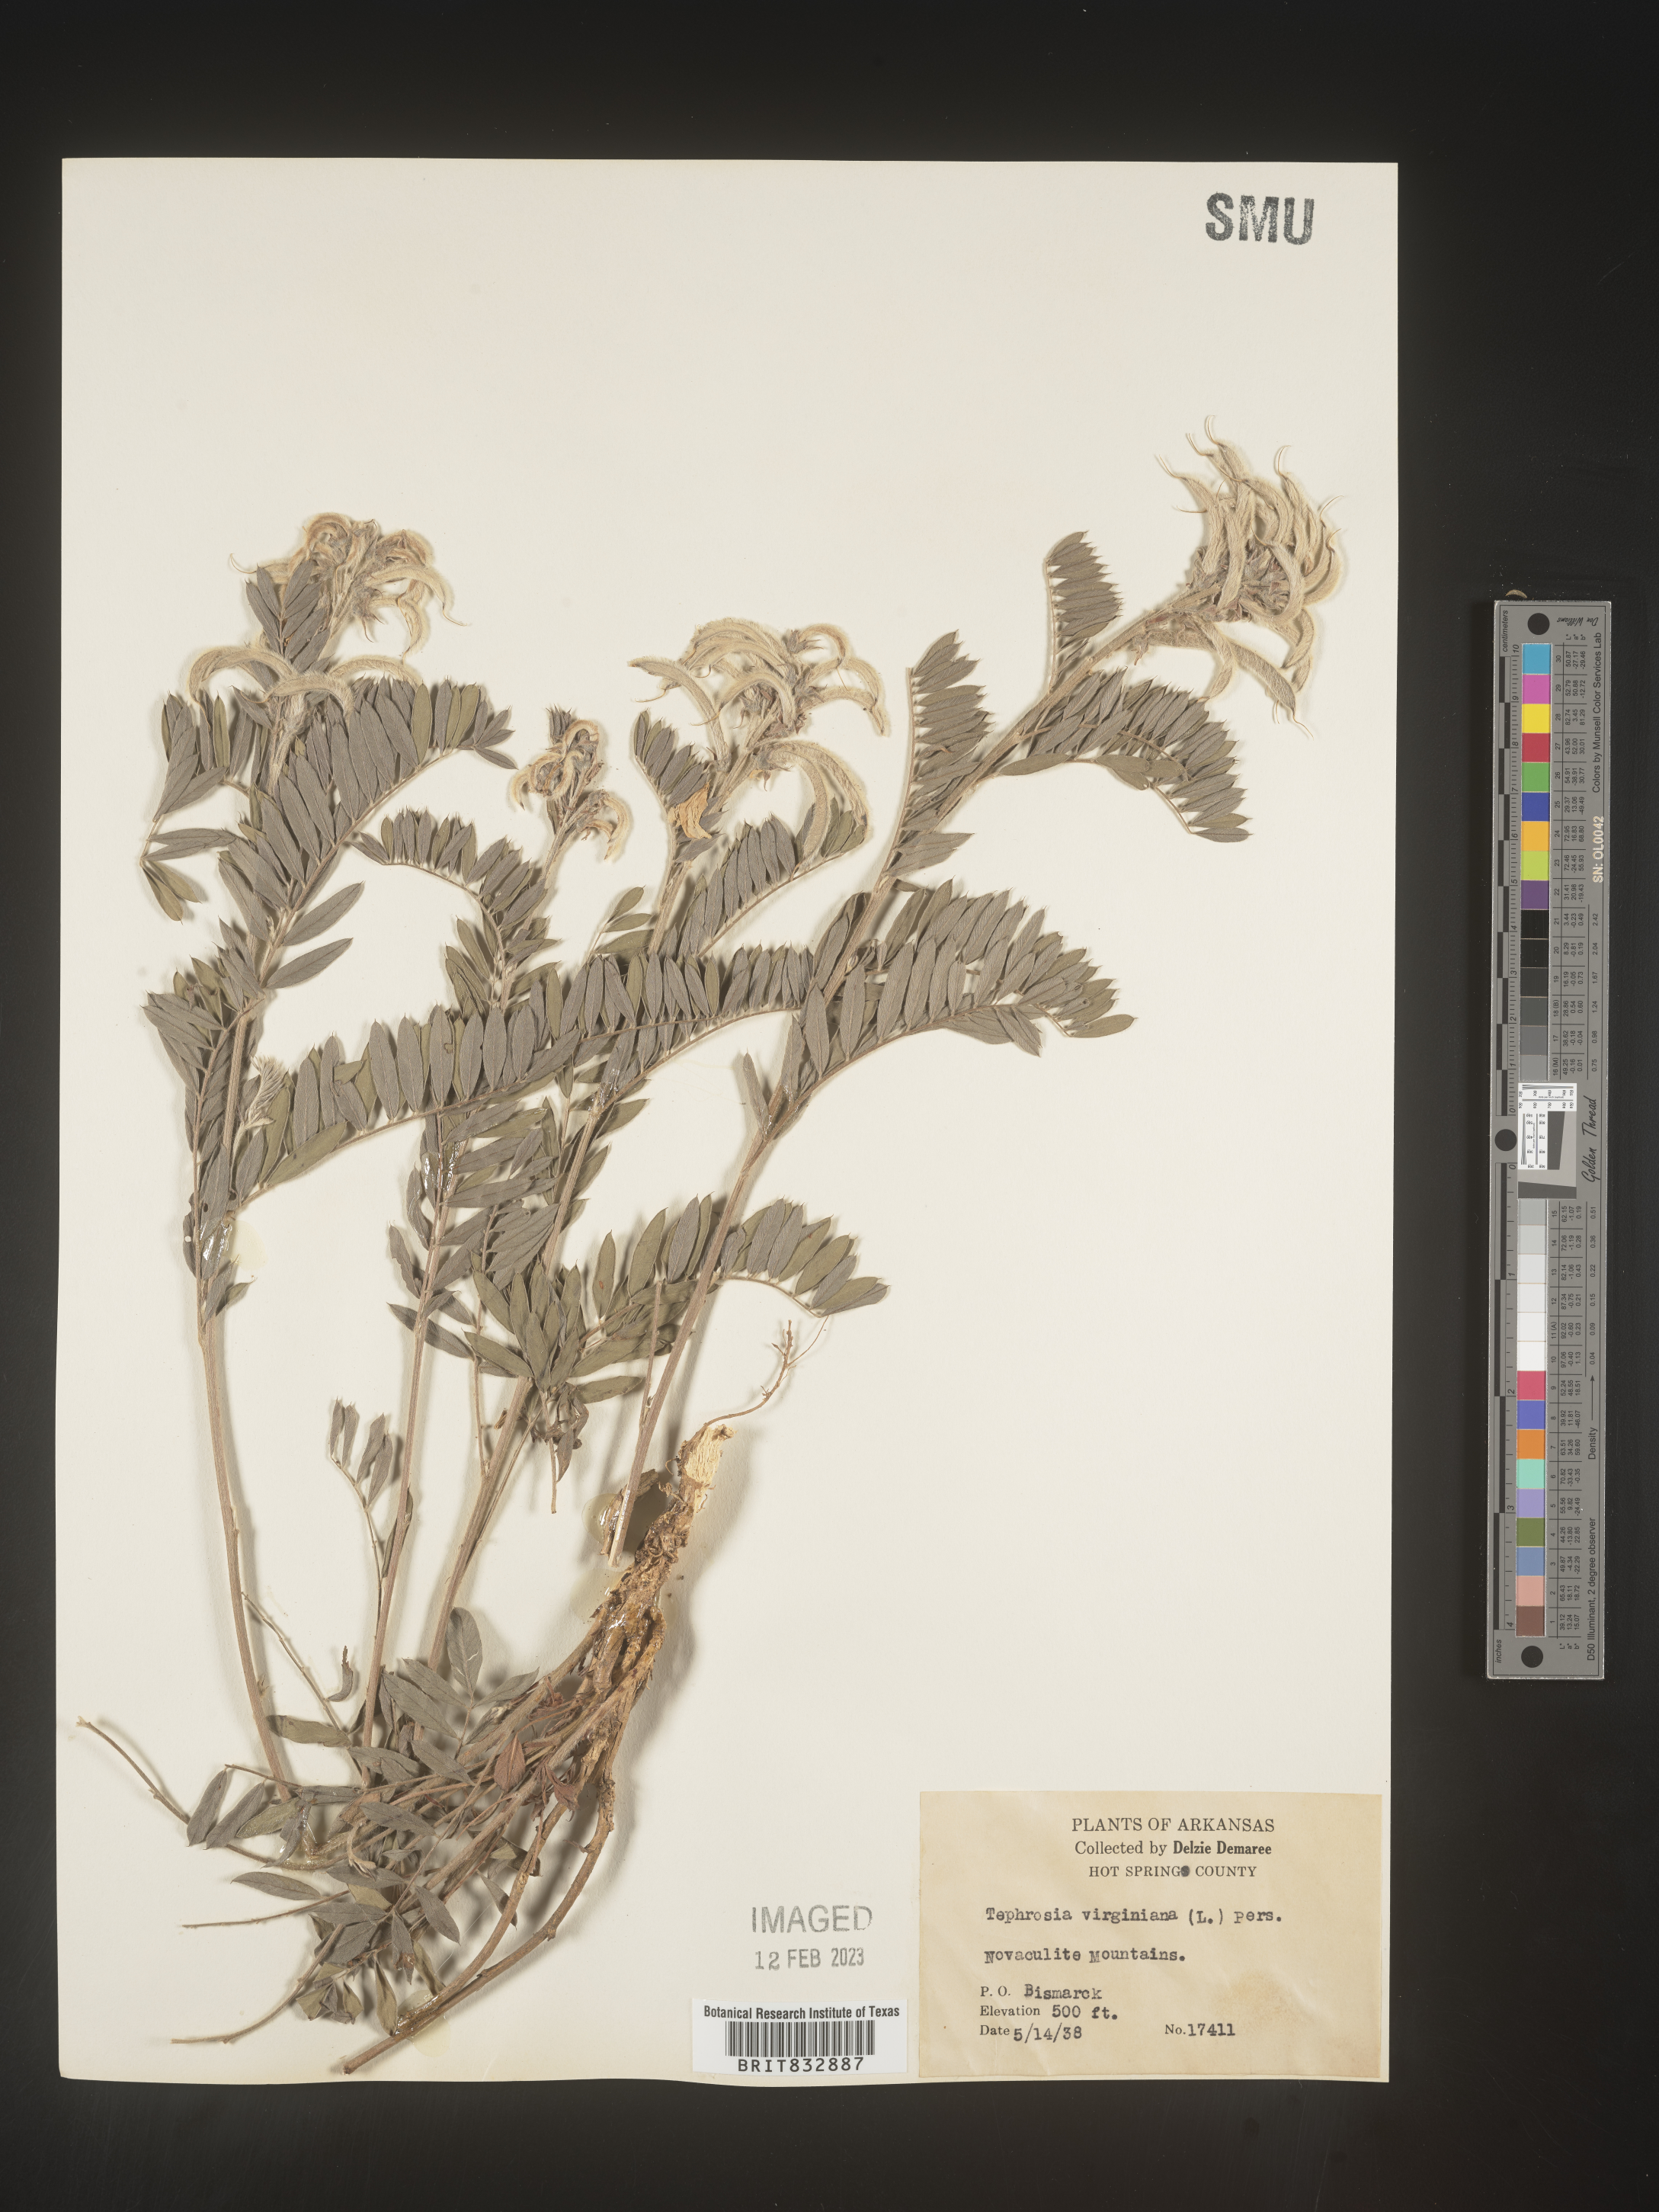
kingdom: Plantae
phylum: Tracheophyta
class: Magnoliopsida
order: Fabales
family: Fabaceae
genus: Tephrosia
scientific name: Tephrosia virginiana
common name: Rabbit-pea
